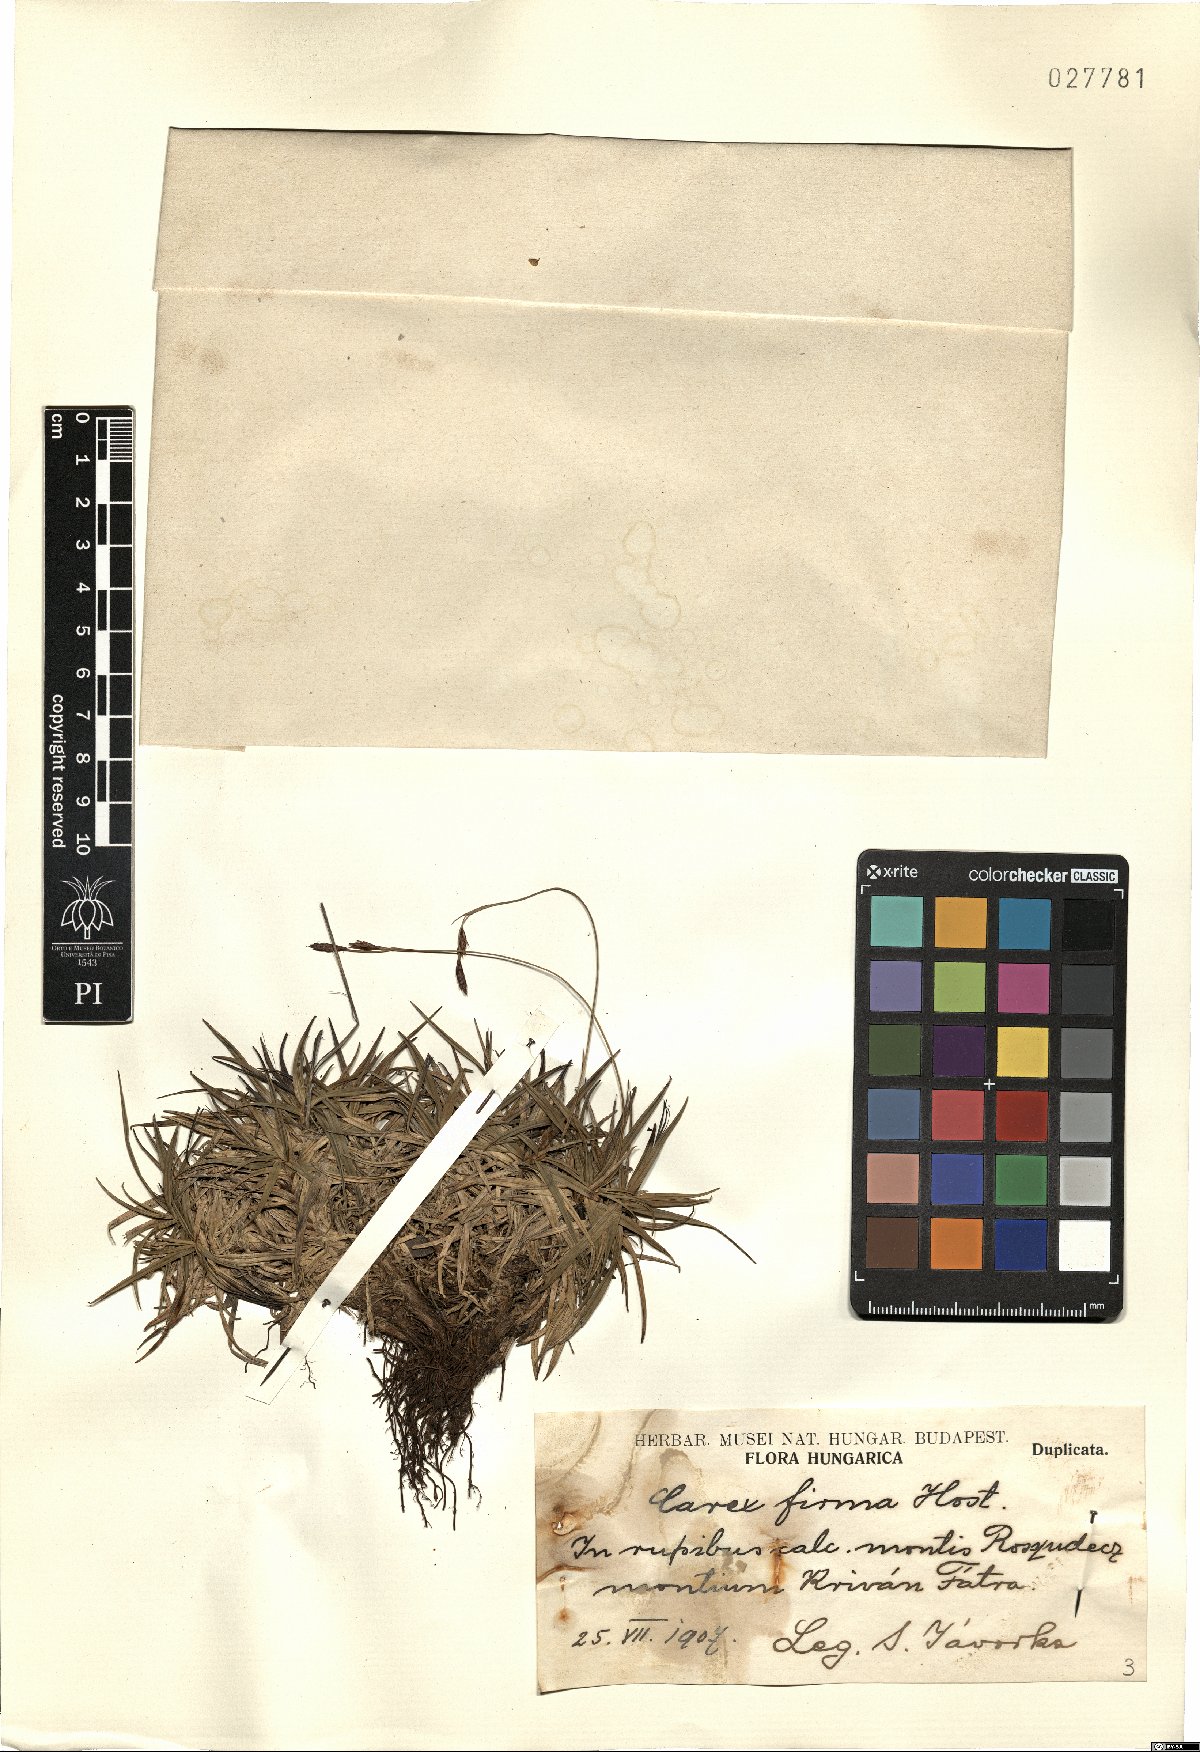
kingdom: Plantae
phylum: Tracheophyta
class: Liliopsida
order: Poales
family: Cyperaceae
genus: Carex
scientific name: Carex firma
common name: Dwarf pillow sedge
